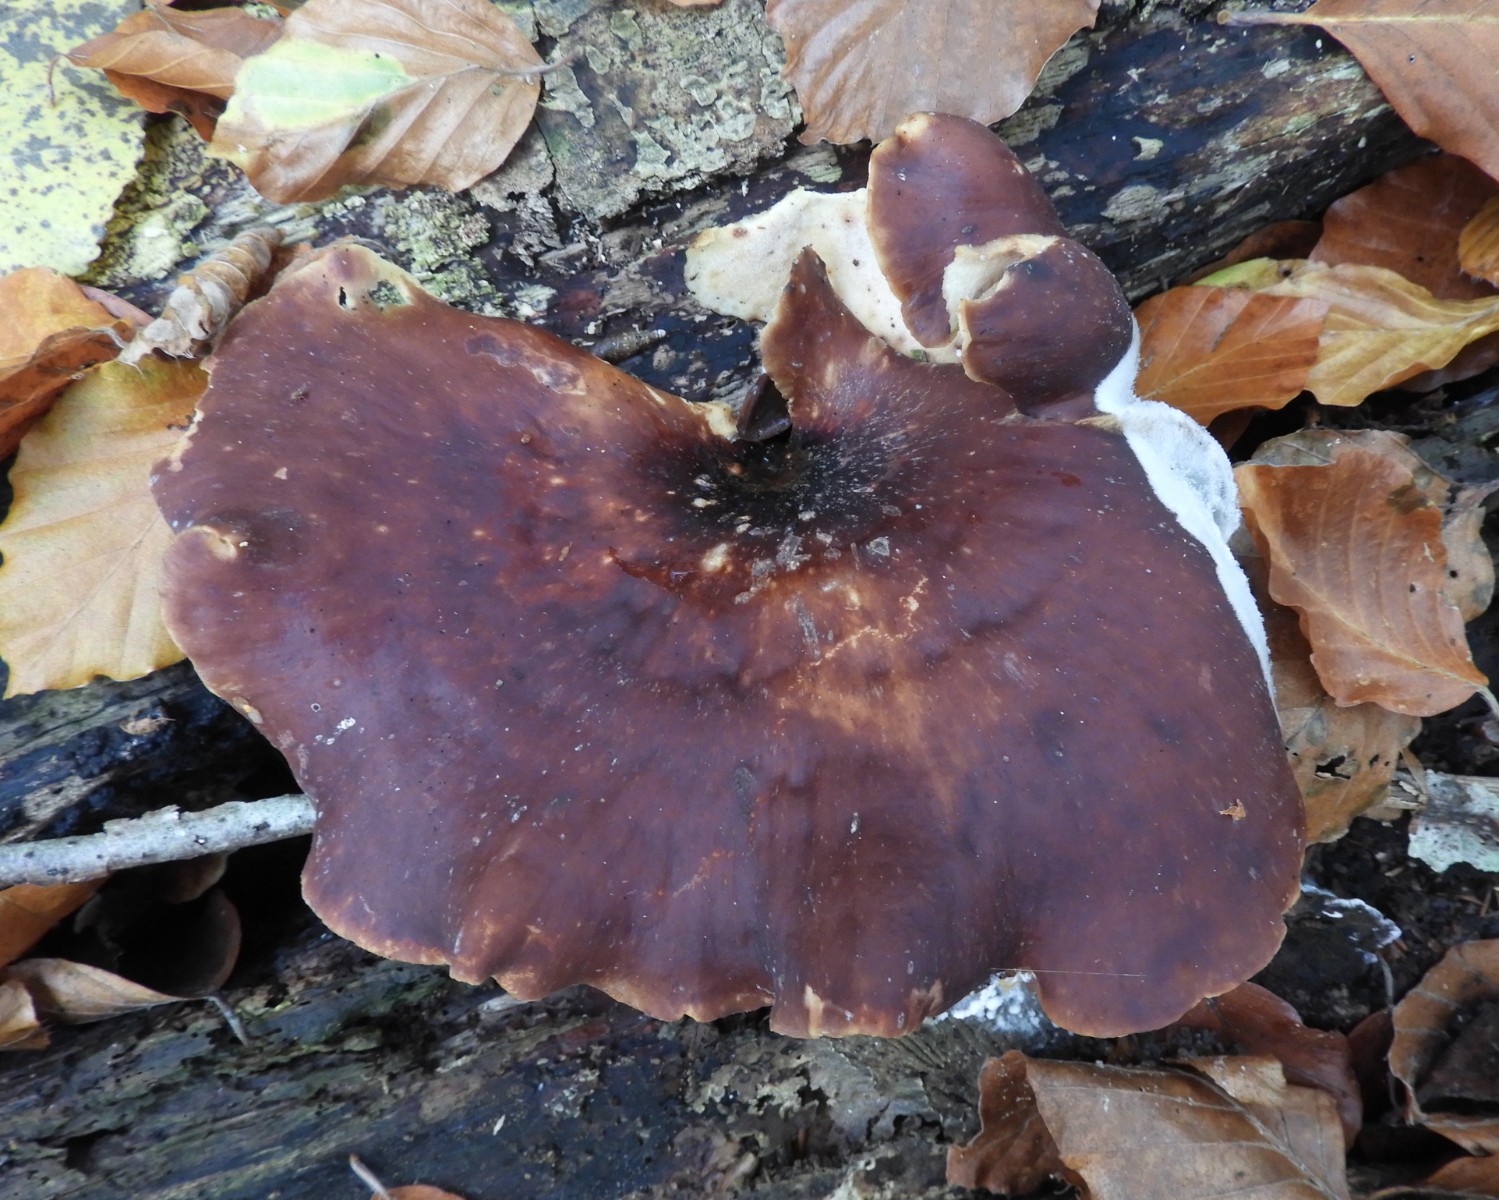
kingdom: Fungi
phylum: Basidiomycota
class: Agaricomycetes
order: Polyporales
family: Polyporaceae
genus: Picipes
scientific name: Picipes badius
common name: kastaniebrun stilkporesvamp
